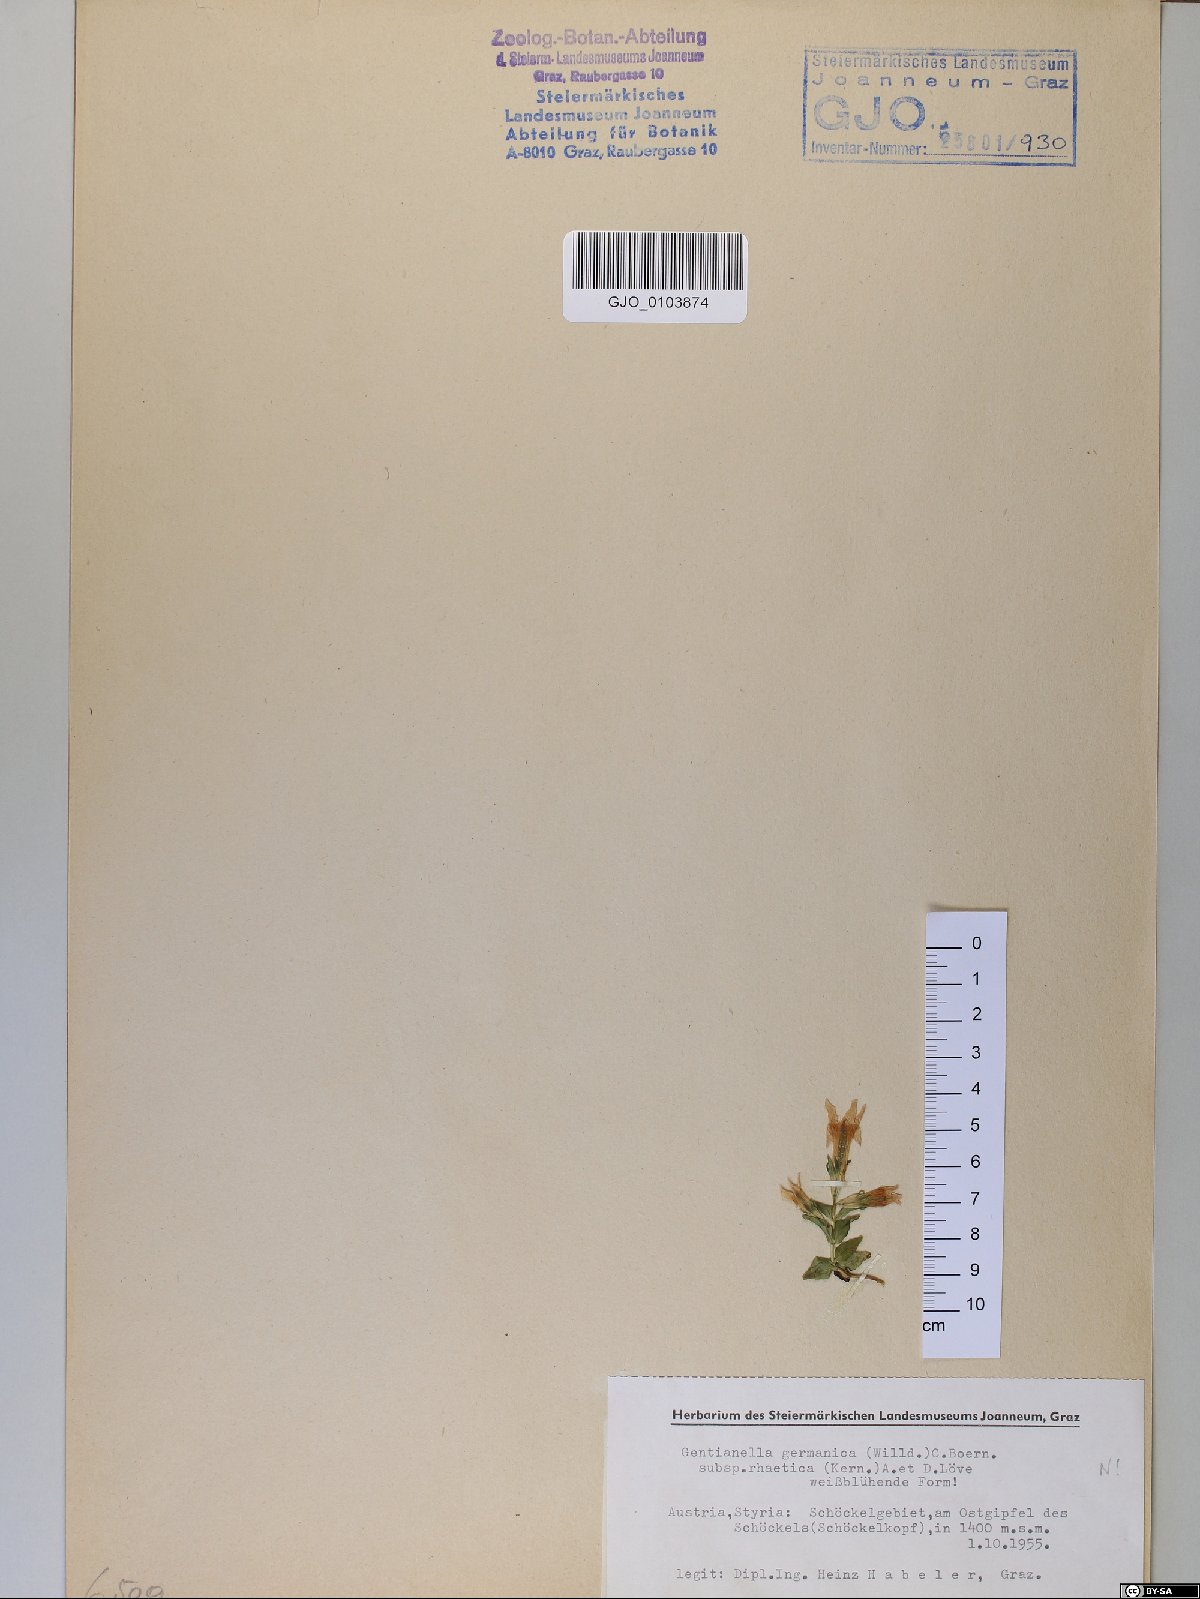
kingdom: Plantae
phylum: Tracheophyta
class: Magnoliopsida
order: Gentianales
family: Gentianaceae
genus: Gentianella
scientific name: Gentianella rhaetica
